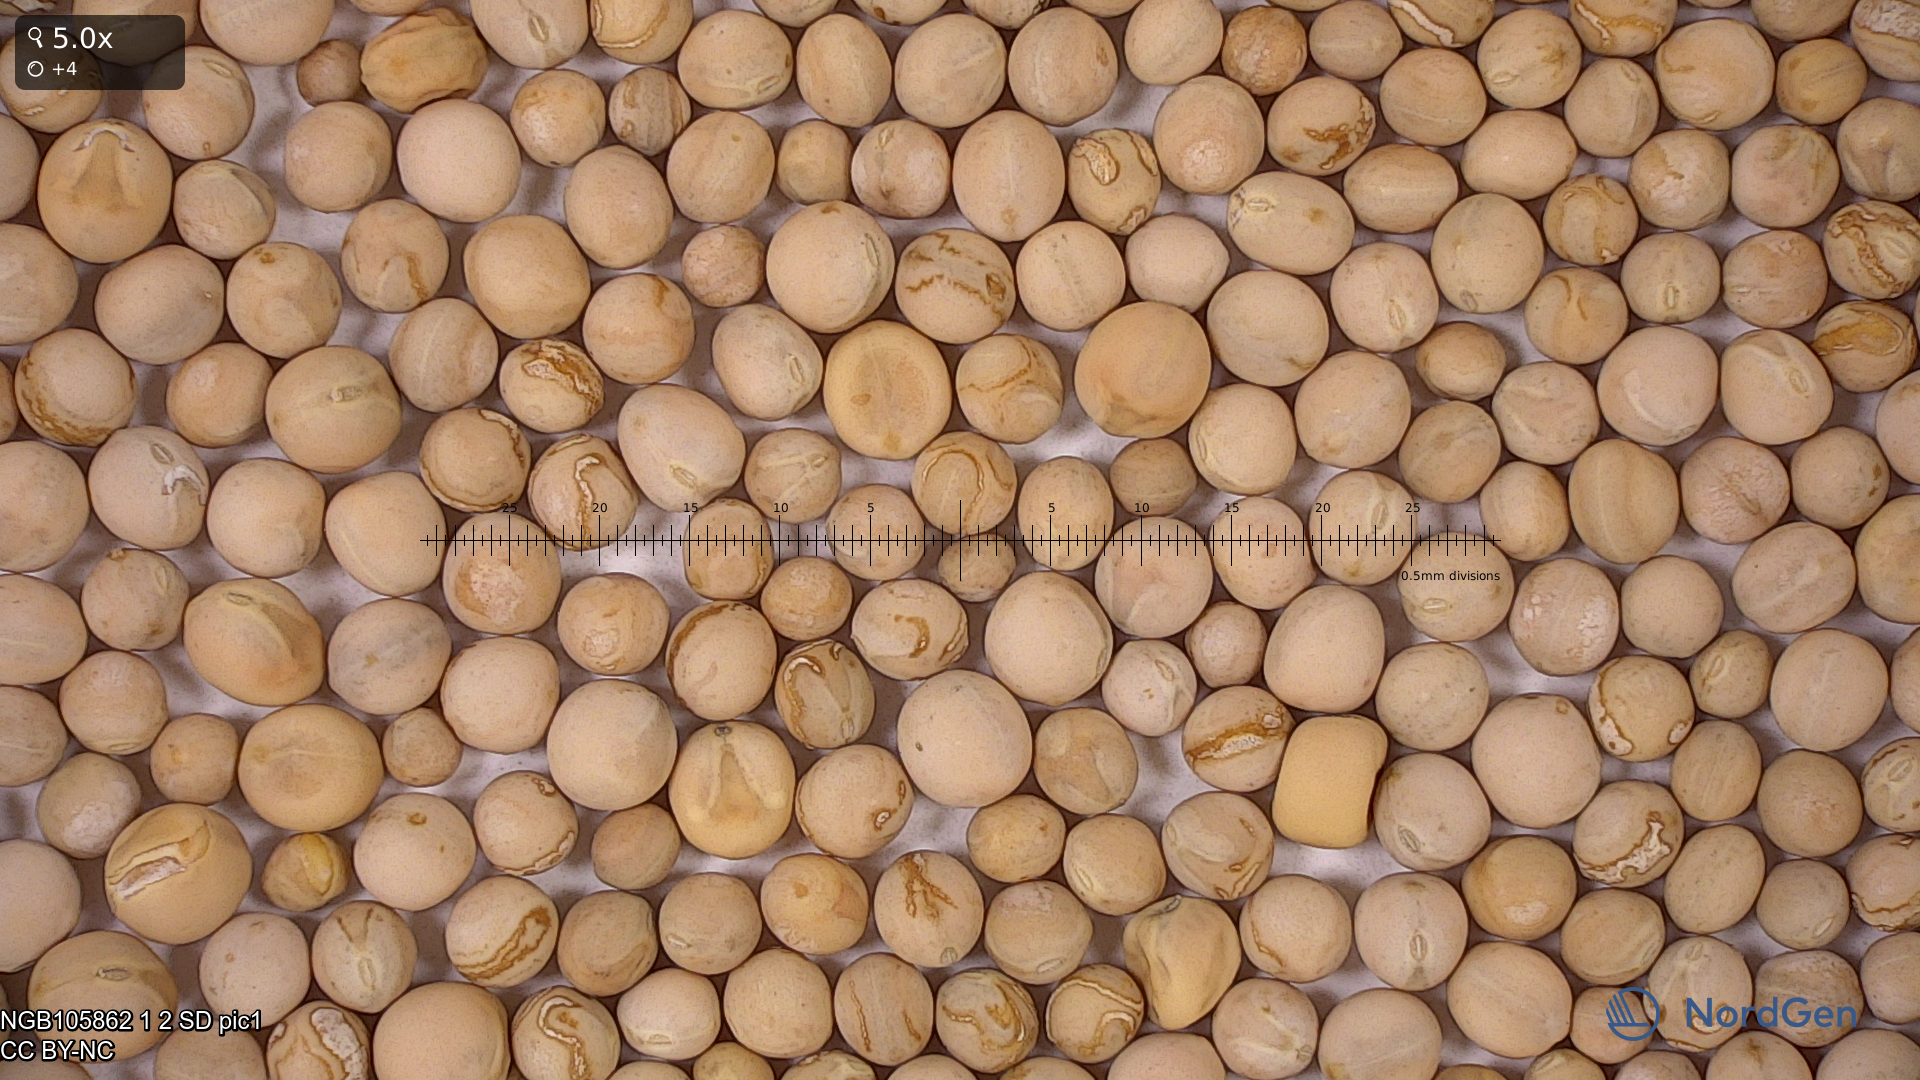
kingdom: Plantae
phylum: Tracheophyta
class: Magnoliopsida
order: Fabales
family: Fabaceae
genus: Lathyrus
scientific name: Lathyrus oleraceus
